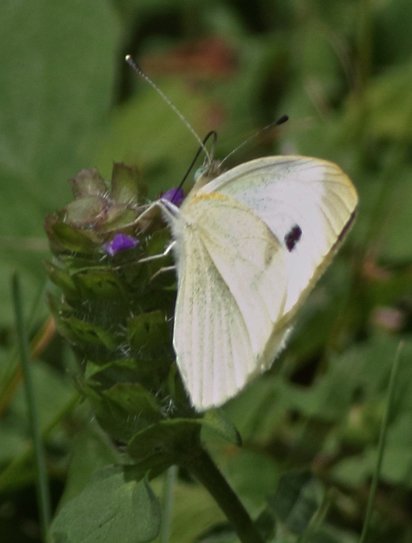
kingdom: Animalia
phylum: Arthropoda
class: Insecta
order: Lepidoptera
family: Pieridae
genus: Pieris
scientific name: Pieris rapae
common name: Cabbage White
